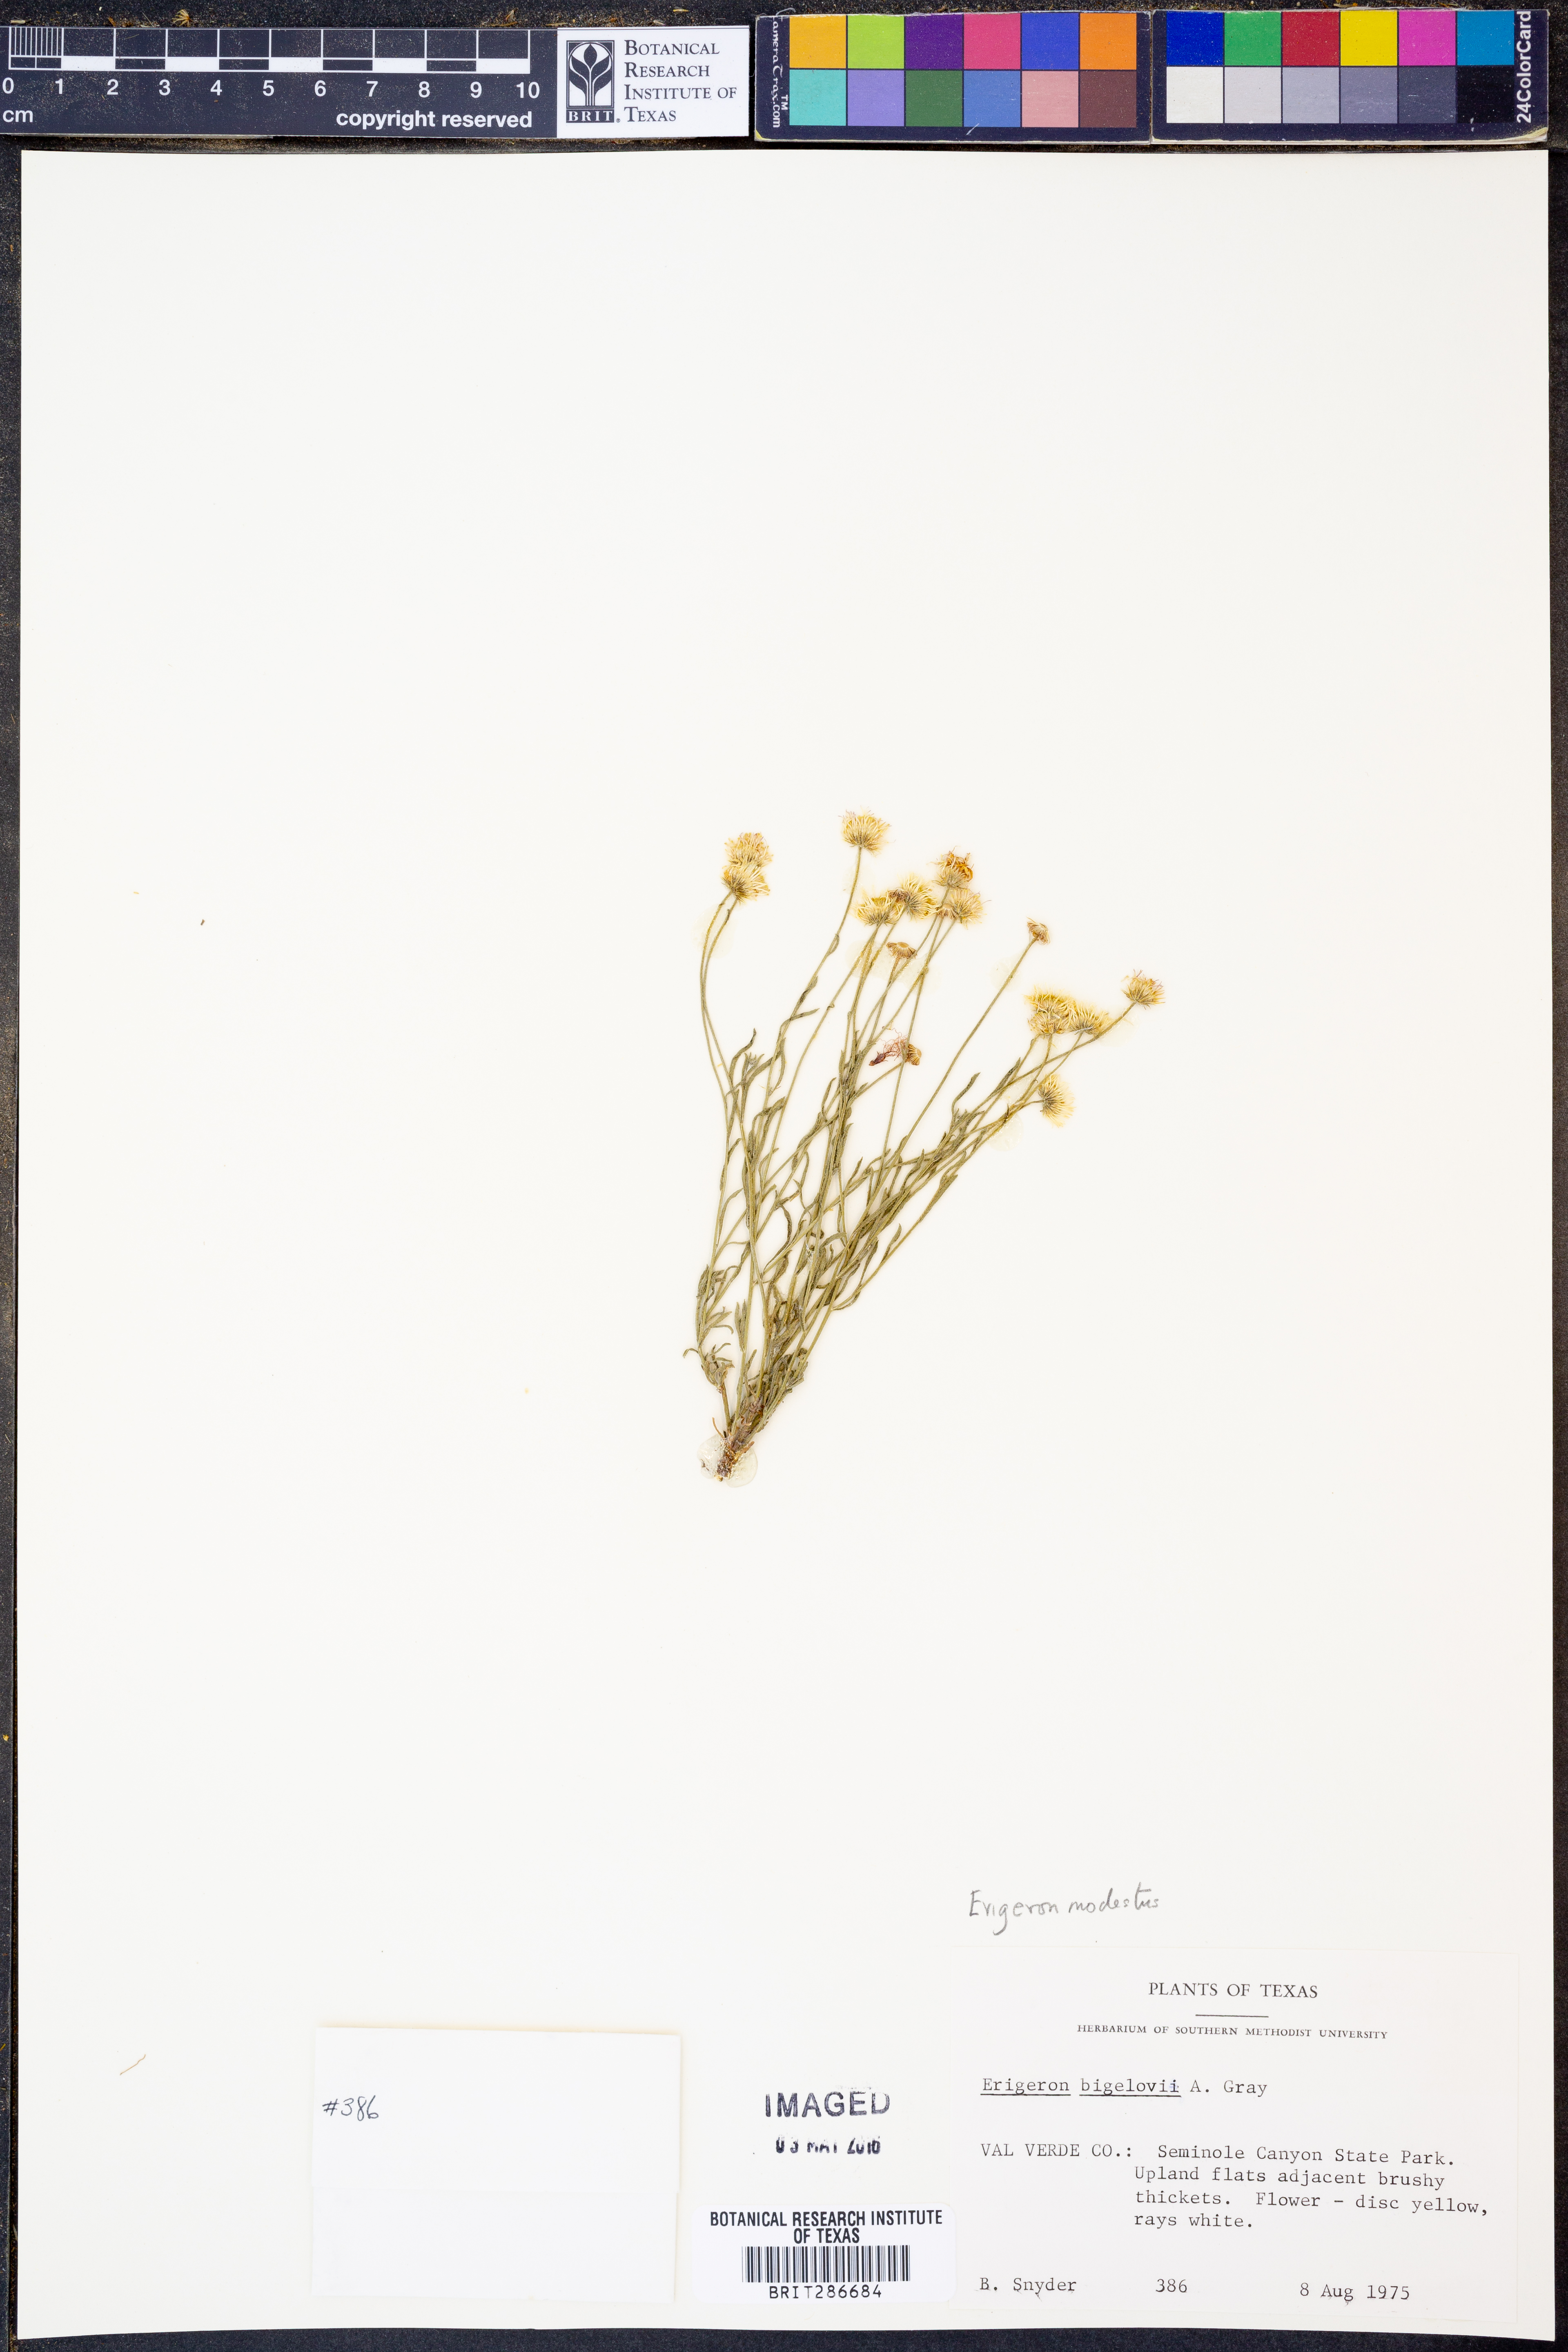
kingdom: Plantae
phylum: Tracheophyta
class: Magnoliopsida
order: Asterales
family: Asteraceae
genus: Erigeron
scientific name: Erigeron modestus
